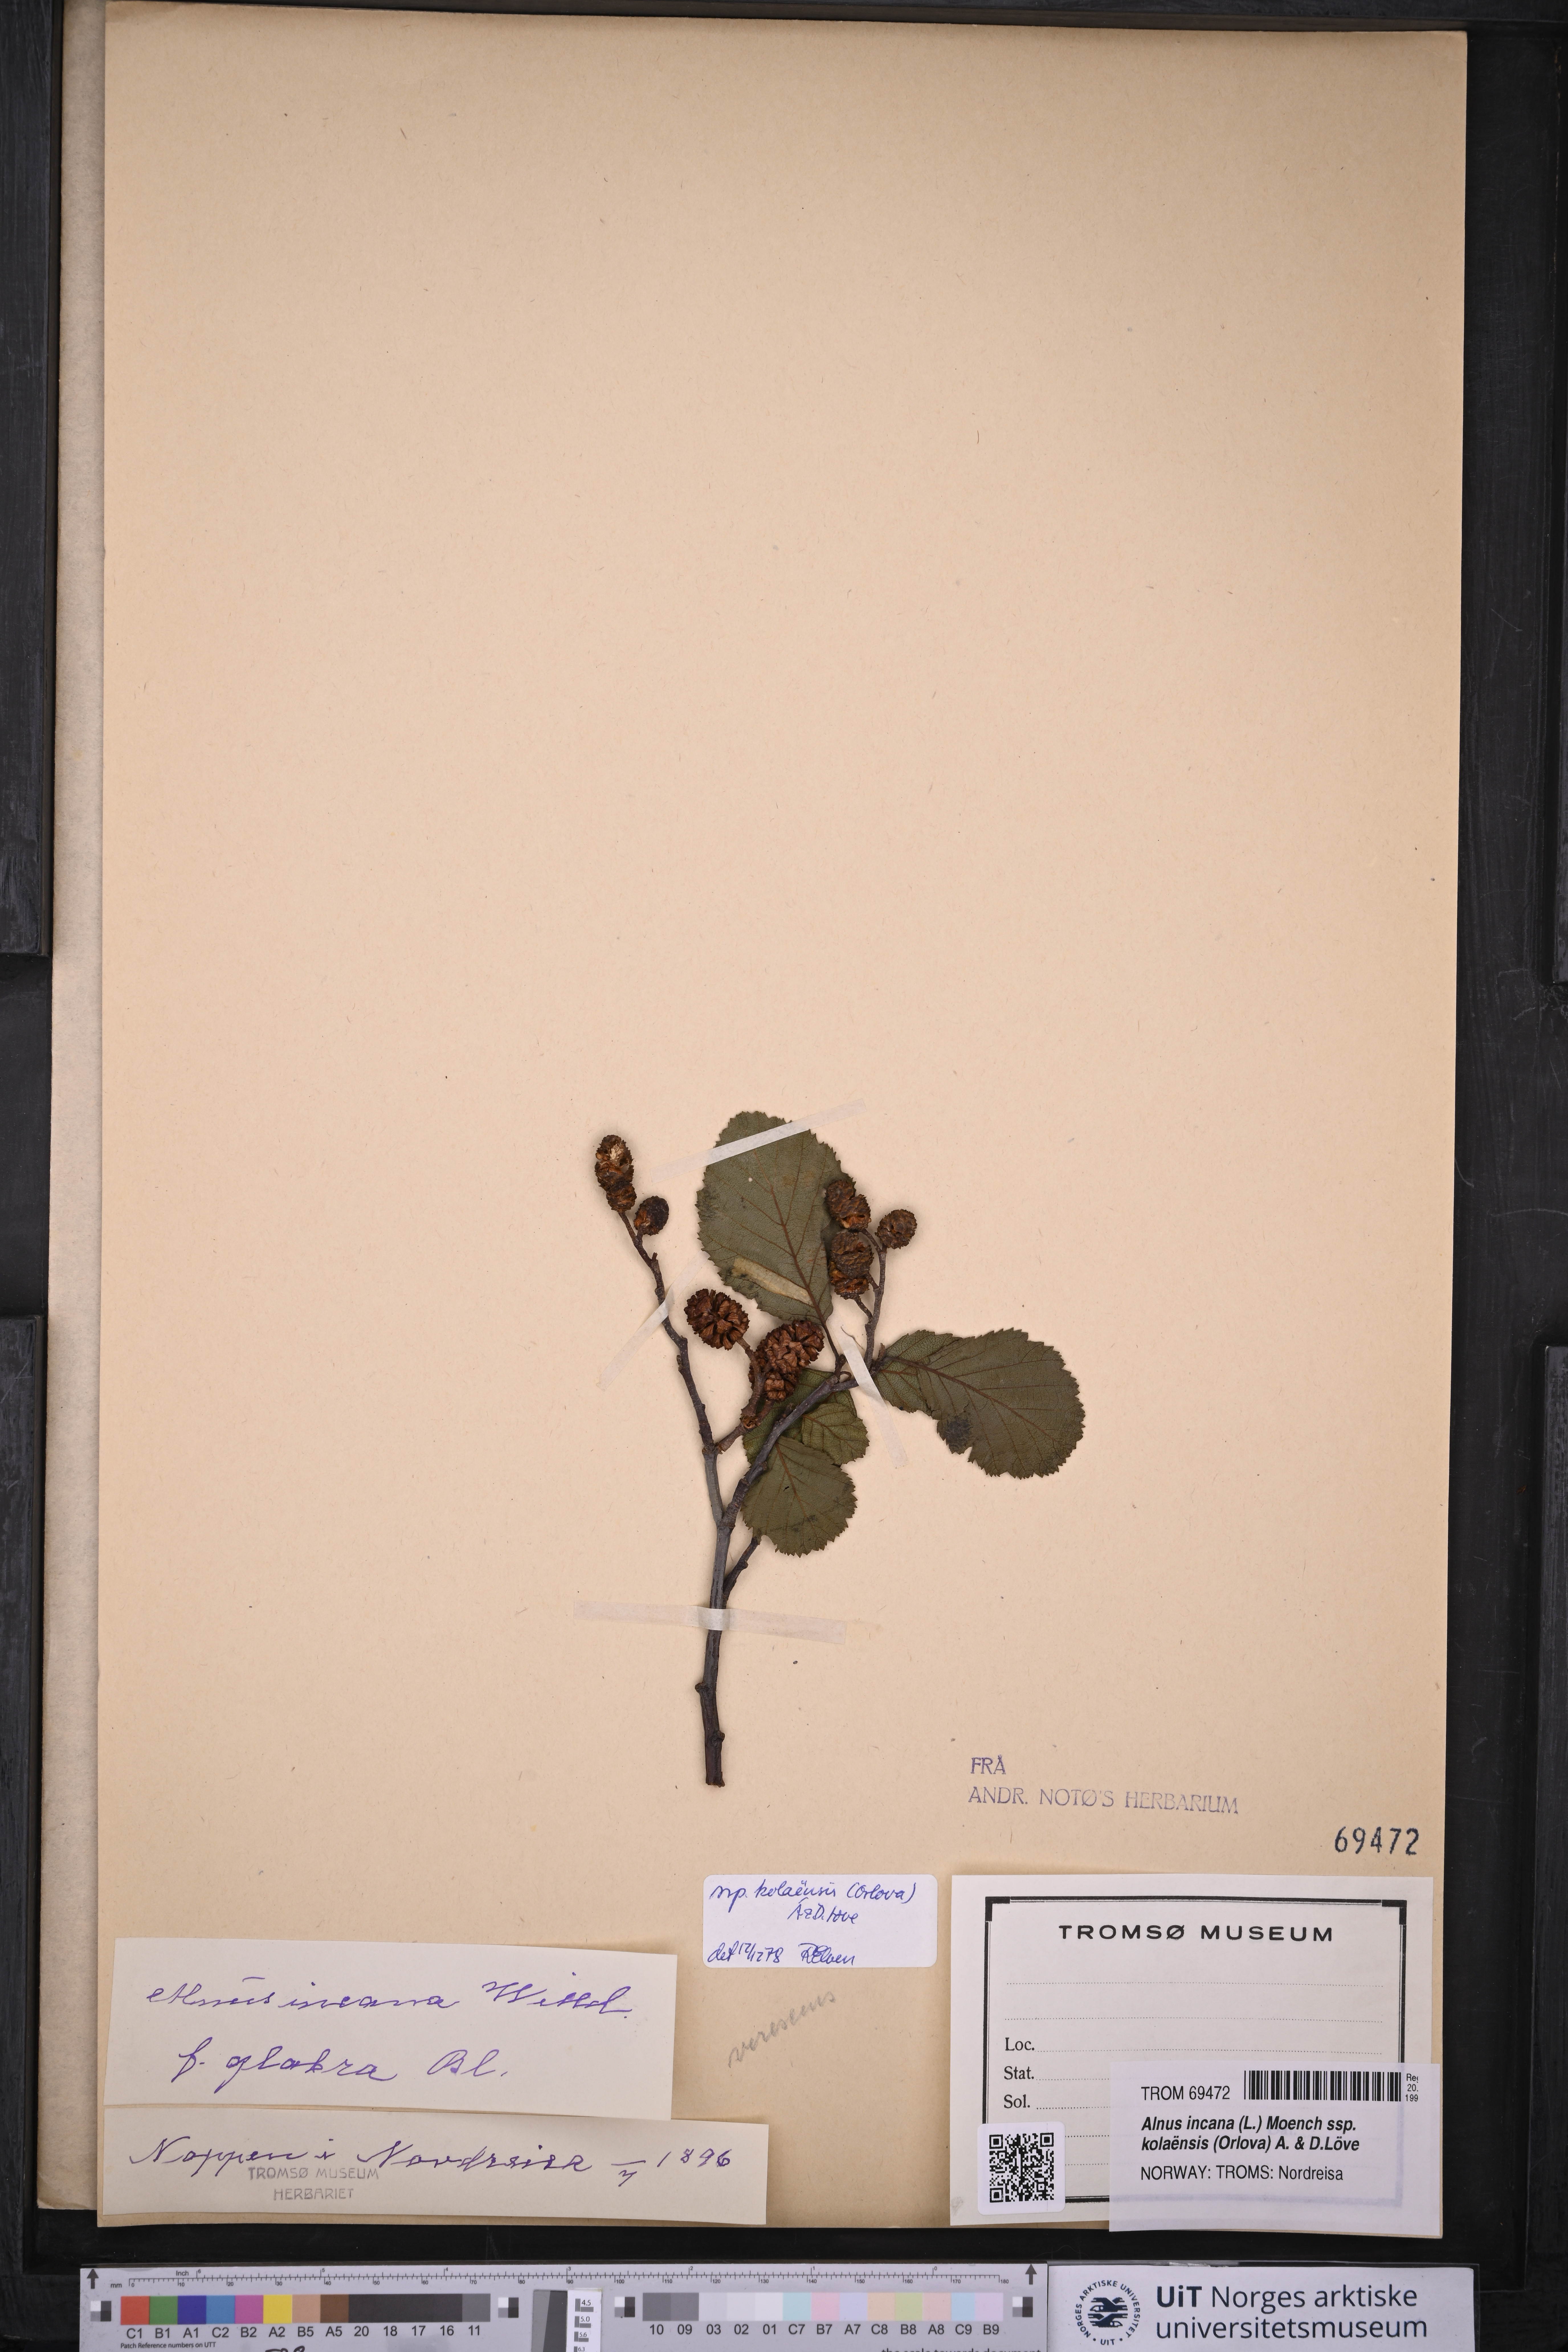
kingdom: Plantae
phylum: Tracheophyta
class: Magnoliopsida
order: Fagales
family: Betulaceae
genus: Alnus
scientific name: Alnus incana
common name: Grey alder
